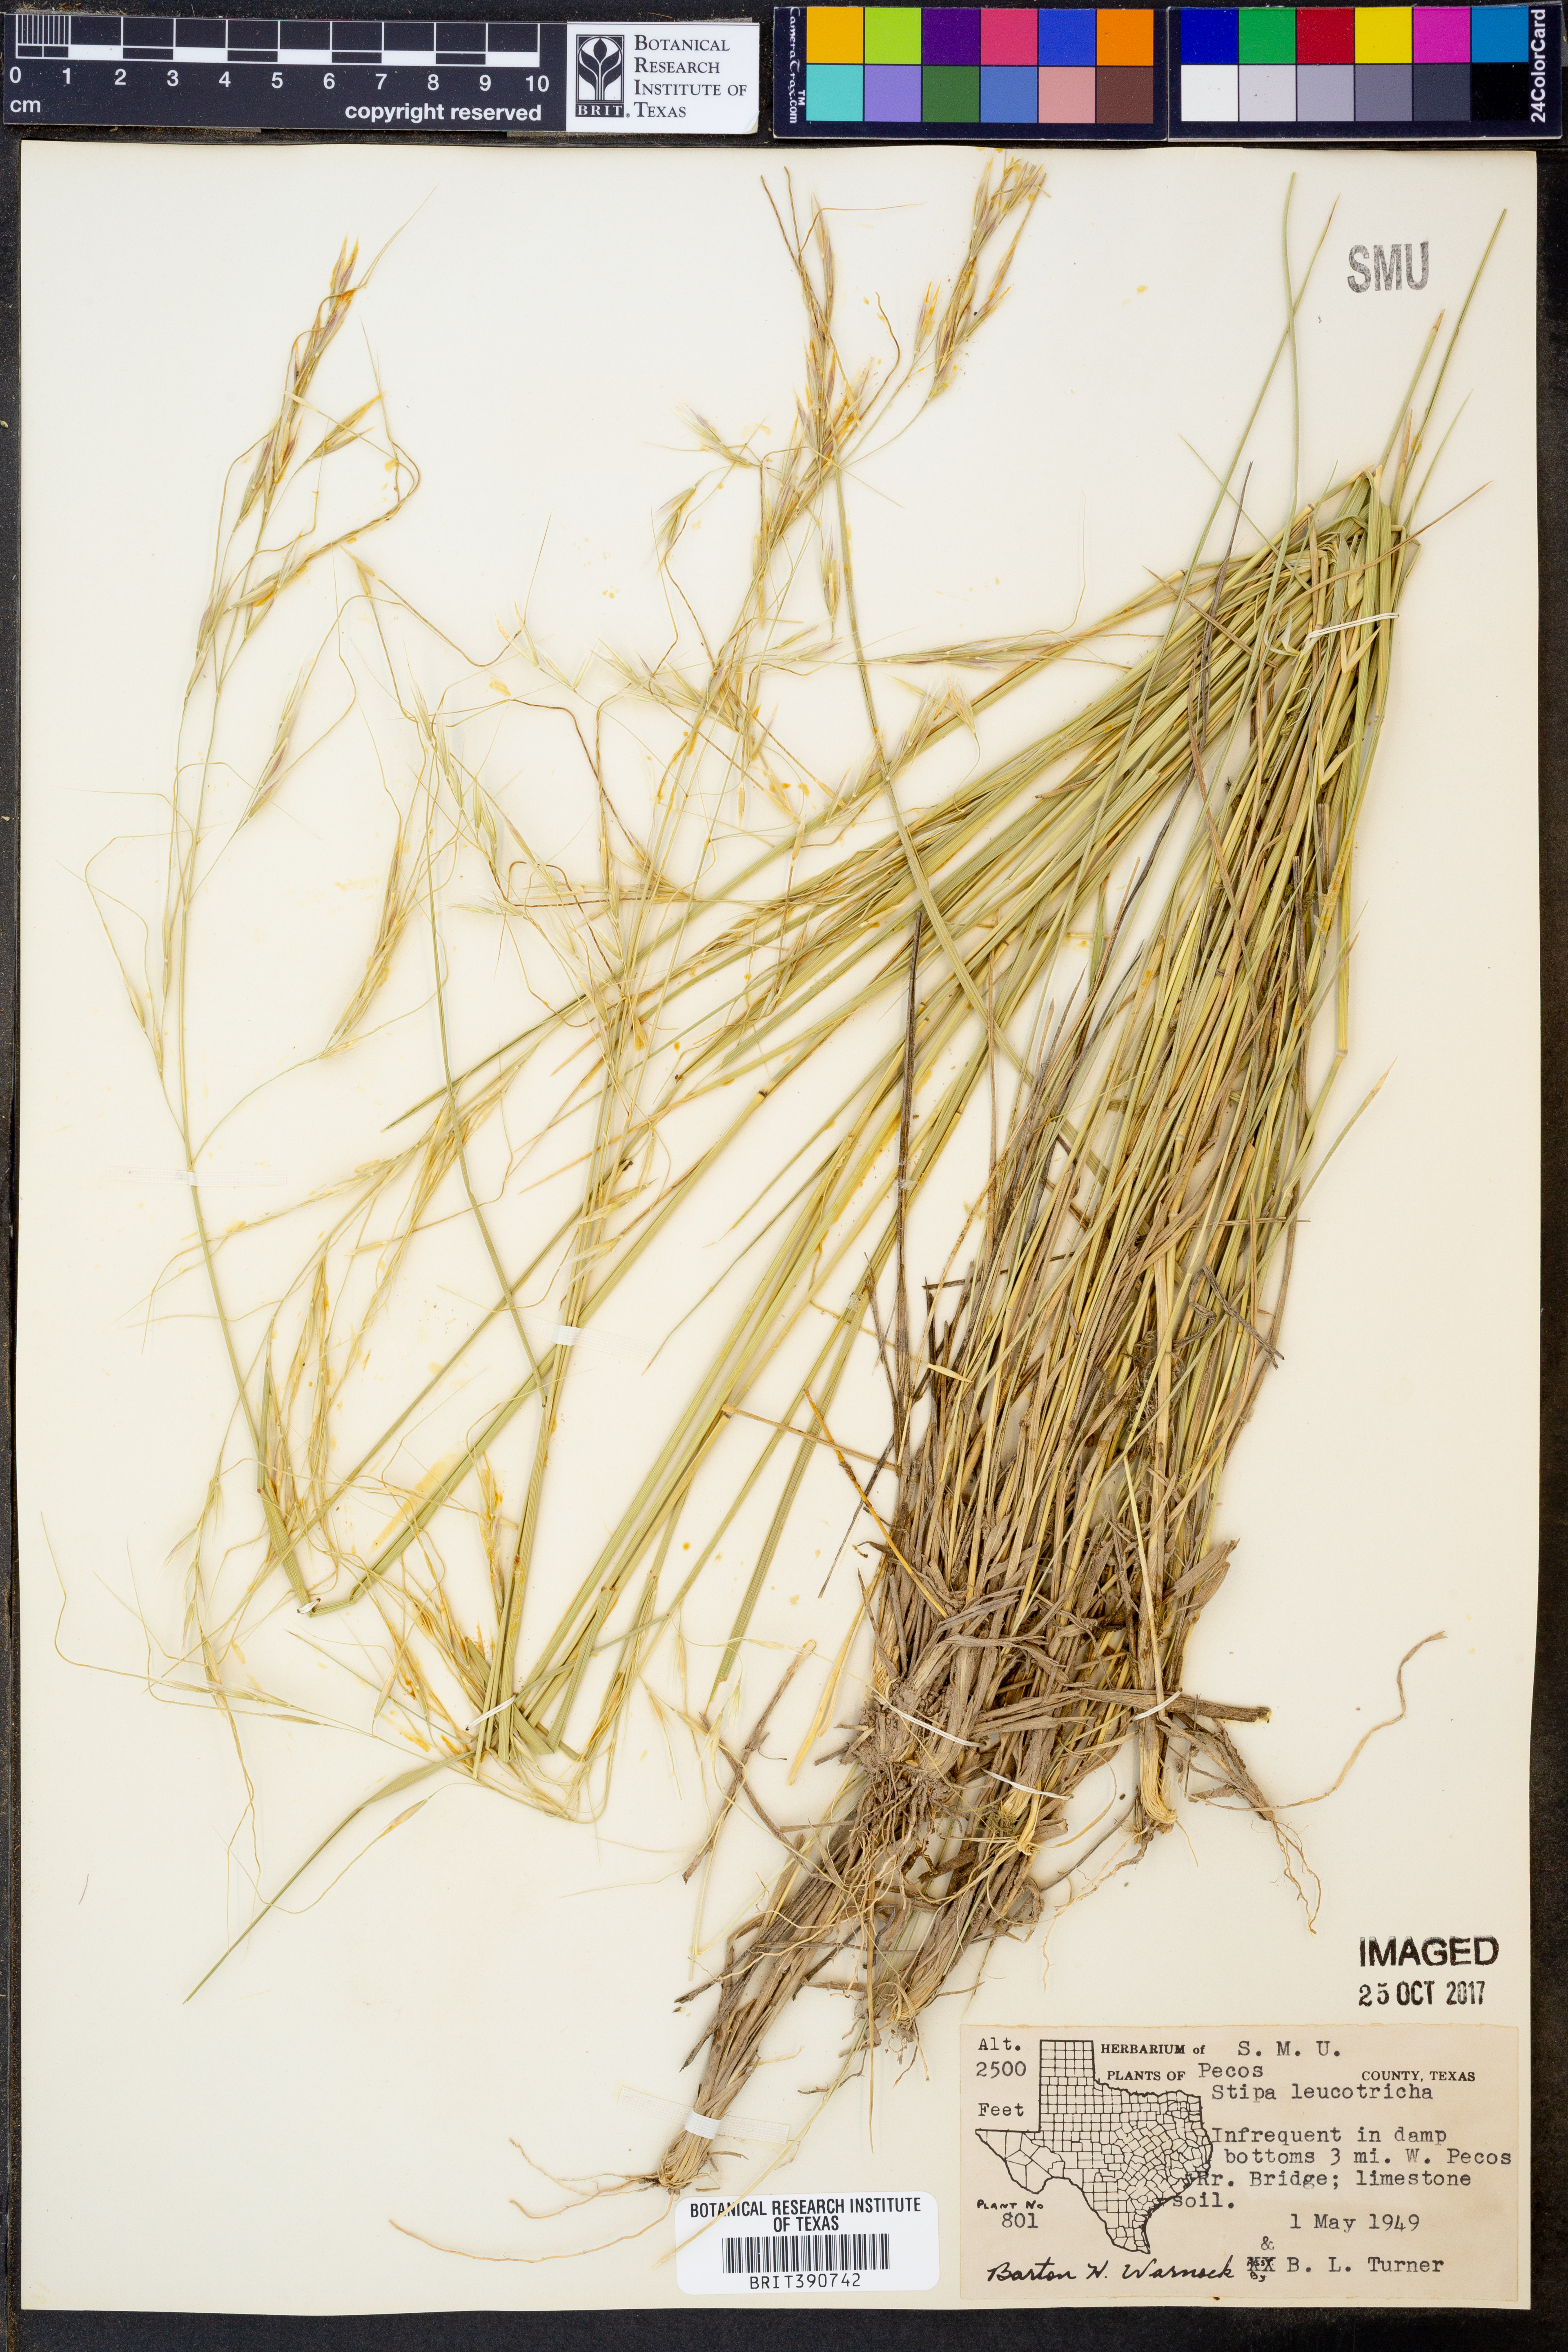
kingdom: Plantae
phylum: Tracheophyta
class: Liliopsida
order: Poales
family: Poaceae
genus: Nassella
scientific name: Nassella leucotricha
